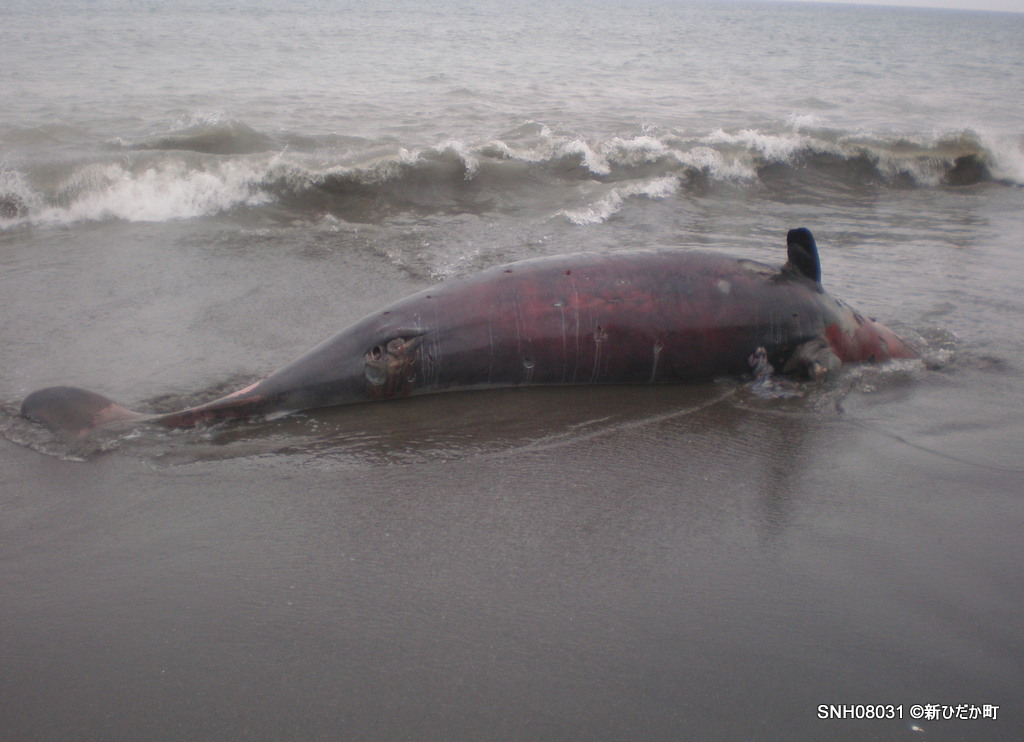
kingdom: Animalia
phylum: Chordata
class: Mammalia
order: Cetacea
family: Hyperoodontidae
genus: Mesoplodon
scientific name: Mesoplodon carlhubbsi
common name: Hubbs' beaked whale
